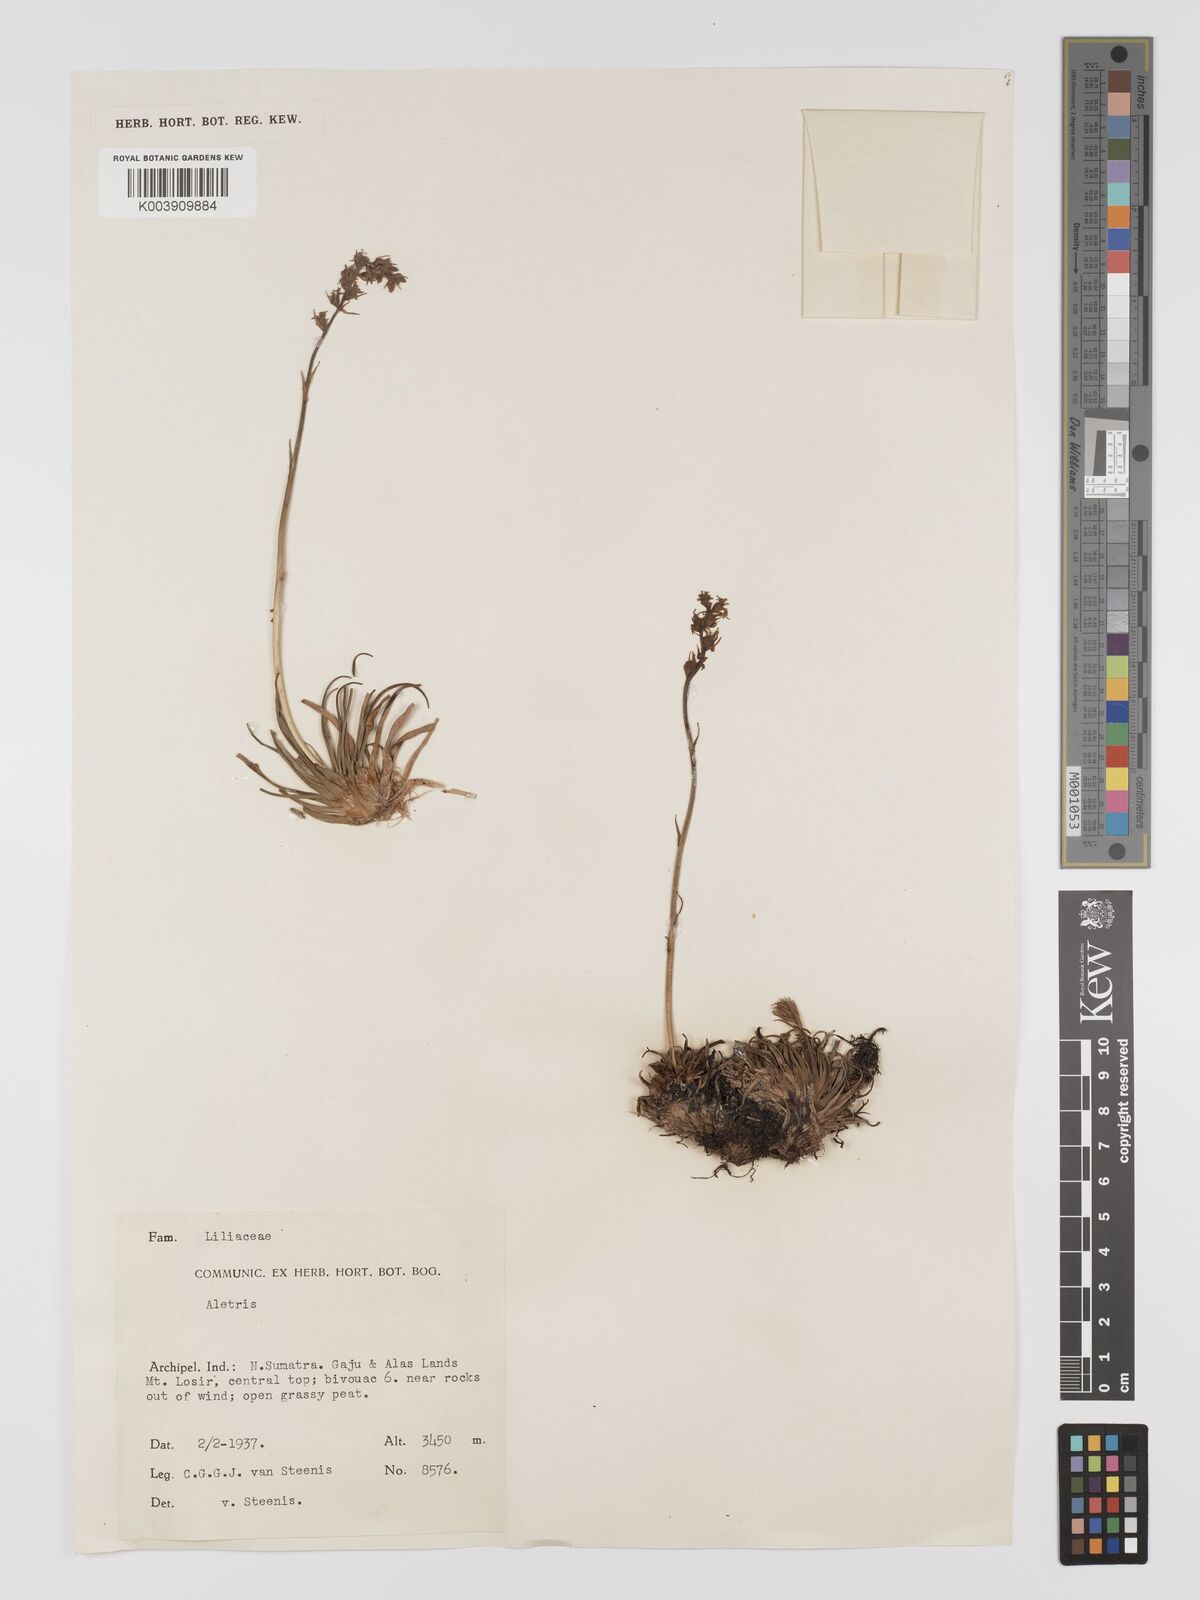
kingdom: Plantae
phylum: Tracheophyta
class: Liliopsida
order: Dioscoreales
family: Nartheciaceae
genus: Aletris
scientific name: Aletris
